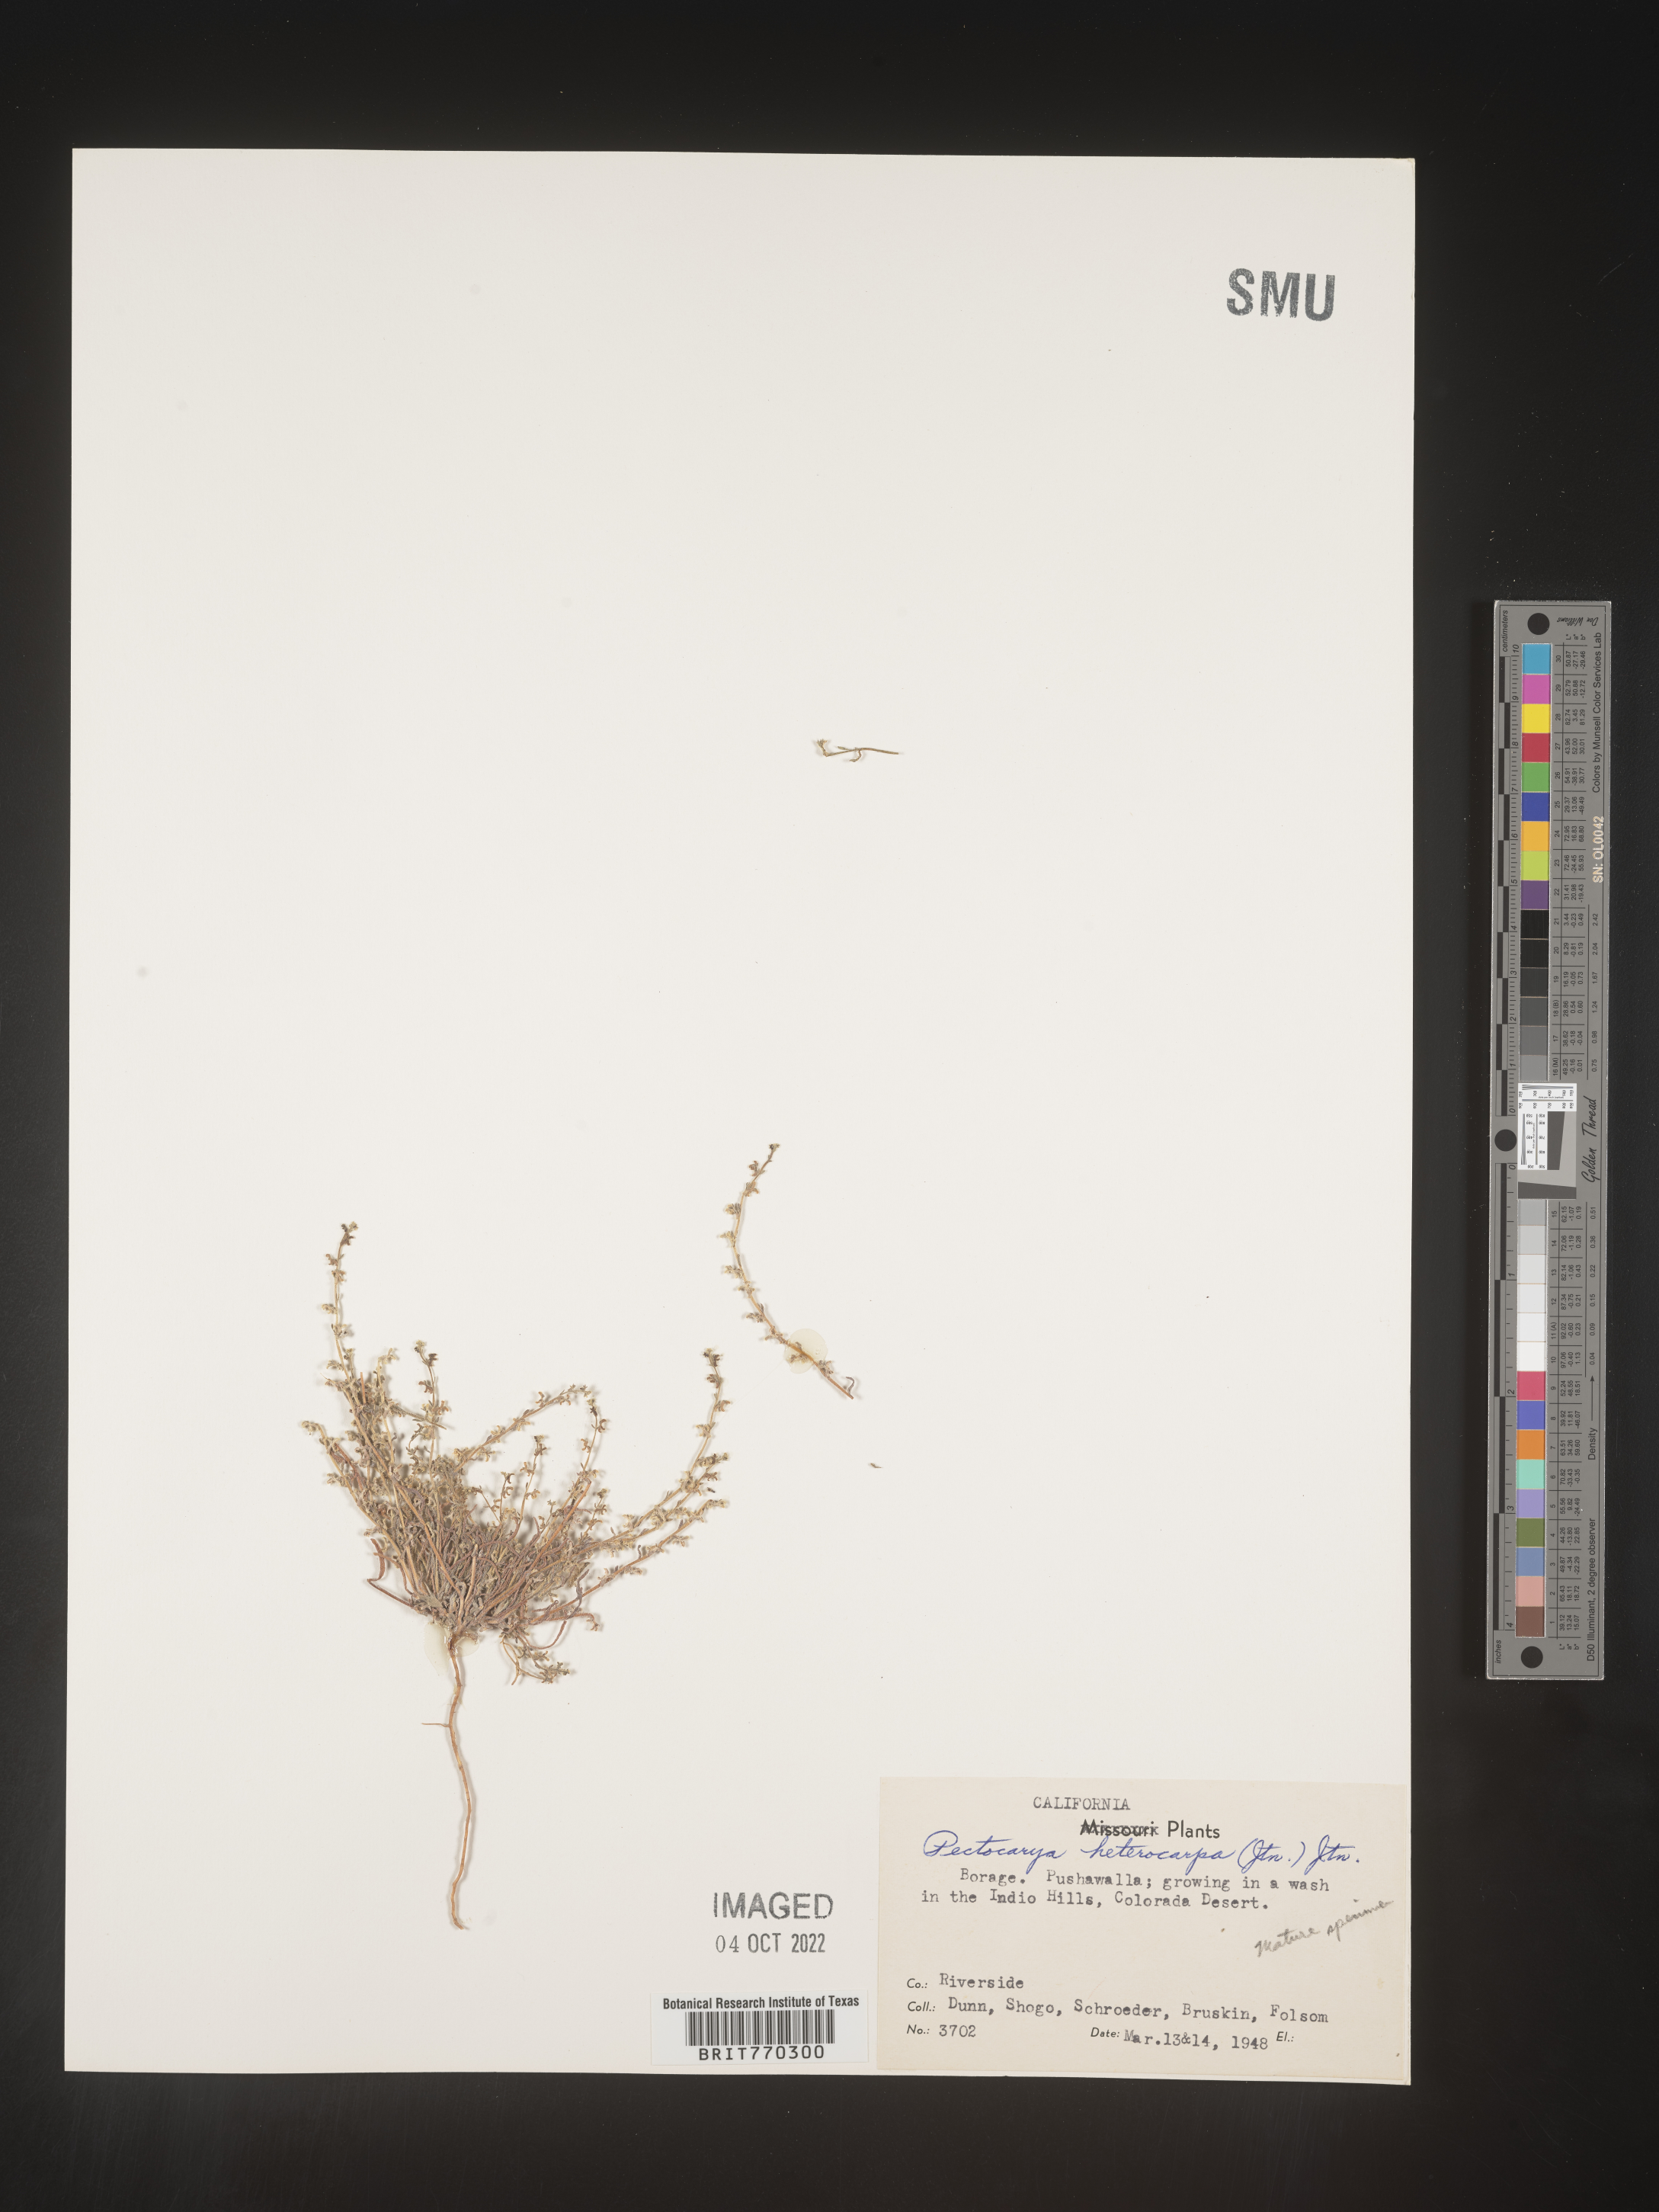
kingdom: Plantae
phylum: Tracheophyta
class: Magnoliopsida
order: Boraginales
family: Boraginaceae
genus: Pectocarya
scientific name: Pectocarya
